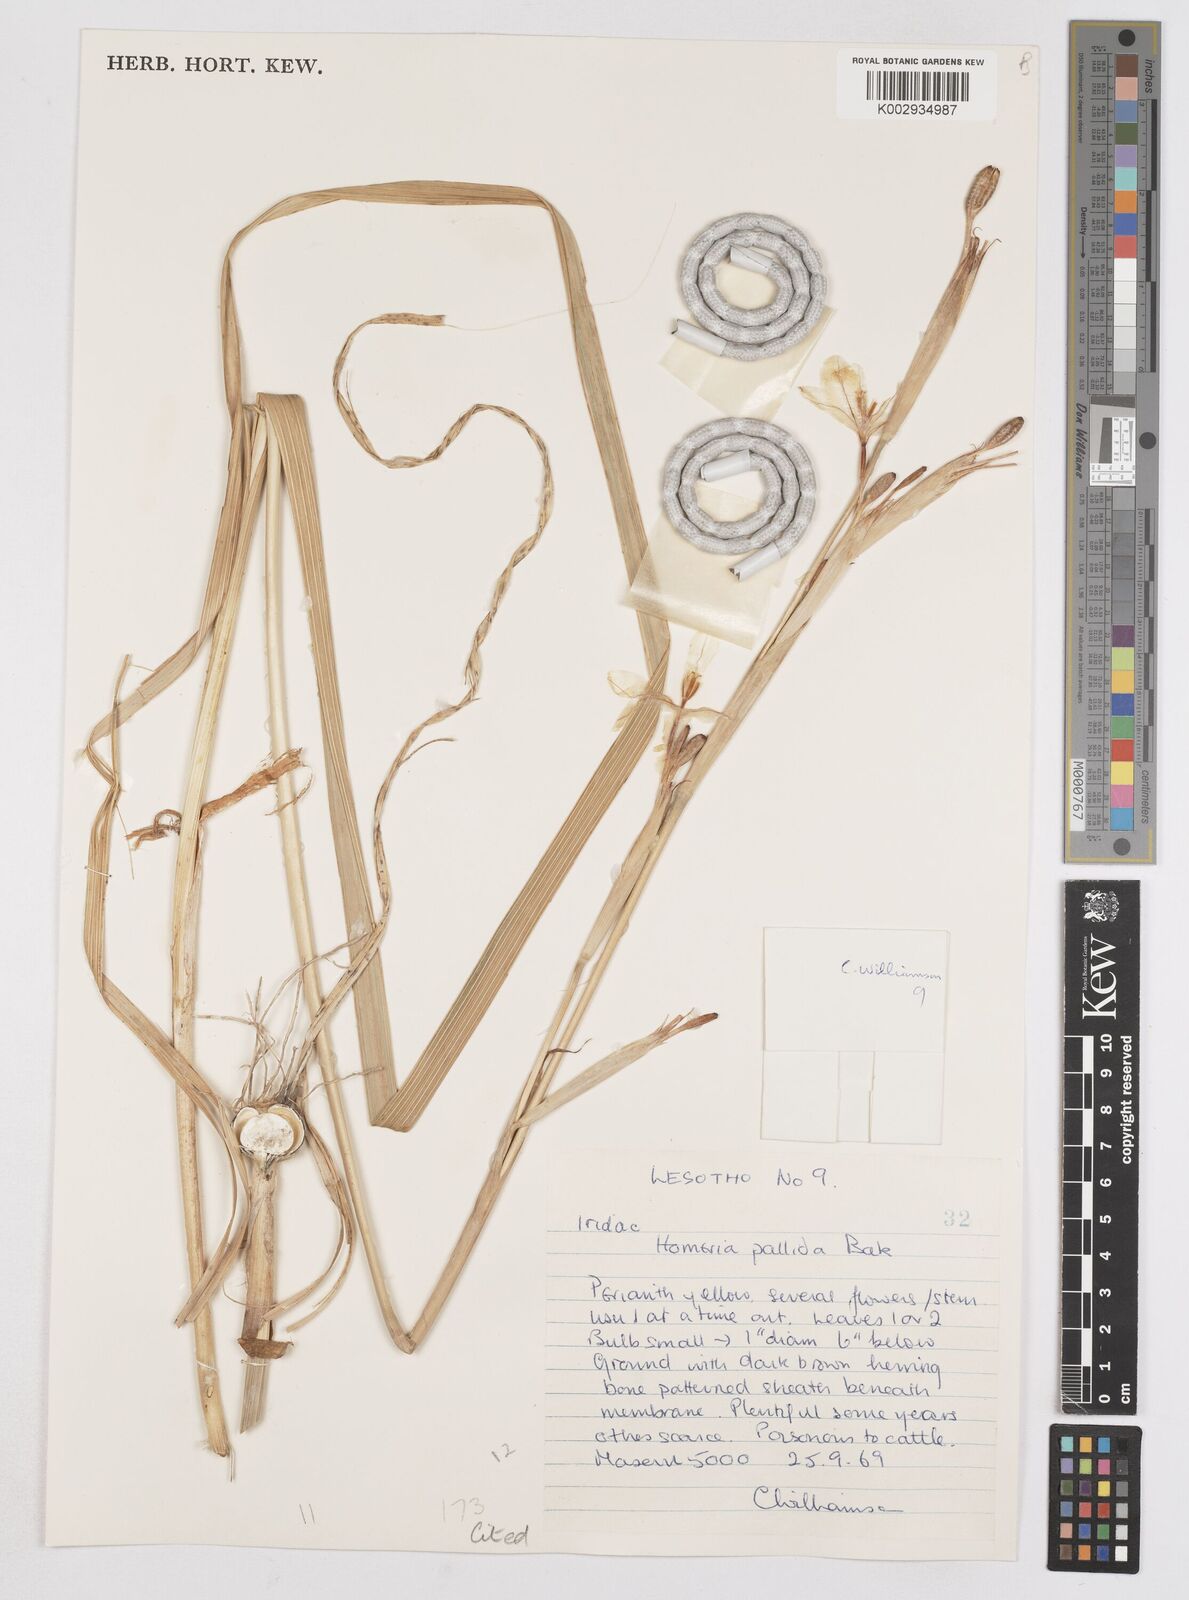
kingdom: Plantae
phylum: Tracheophyta
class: Liliopsida
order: Asparagales
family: Iridaceae
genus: Moraea
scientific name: Moraea pallida
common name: Yellow tulp
